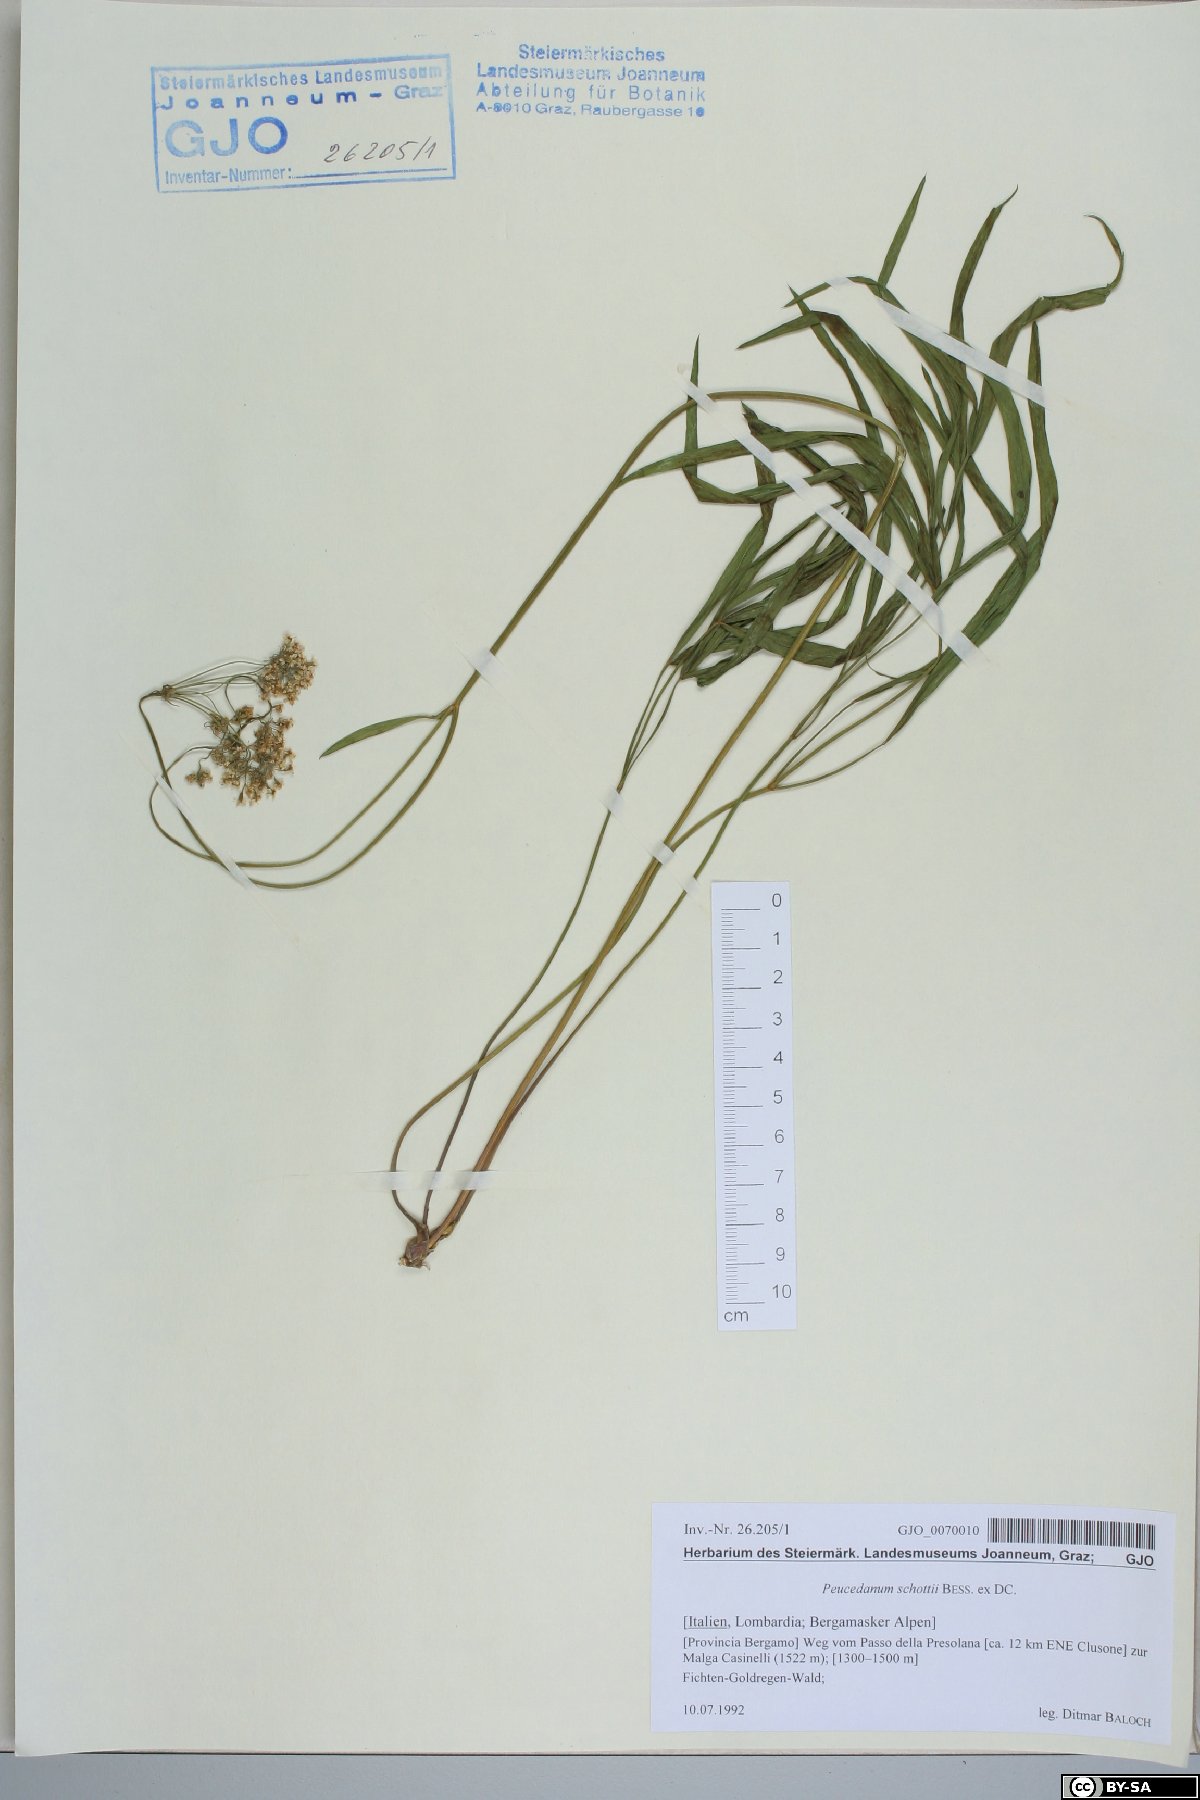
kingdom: Plantae
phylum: Tracheophyta
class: Magnoliopsida
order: Apiales
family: Apiaceae
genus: Dichoropetalum
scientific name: Dichoropetalum schottii
